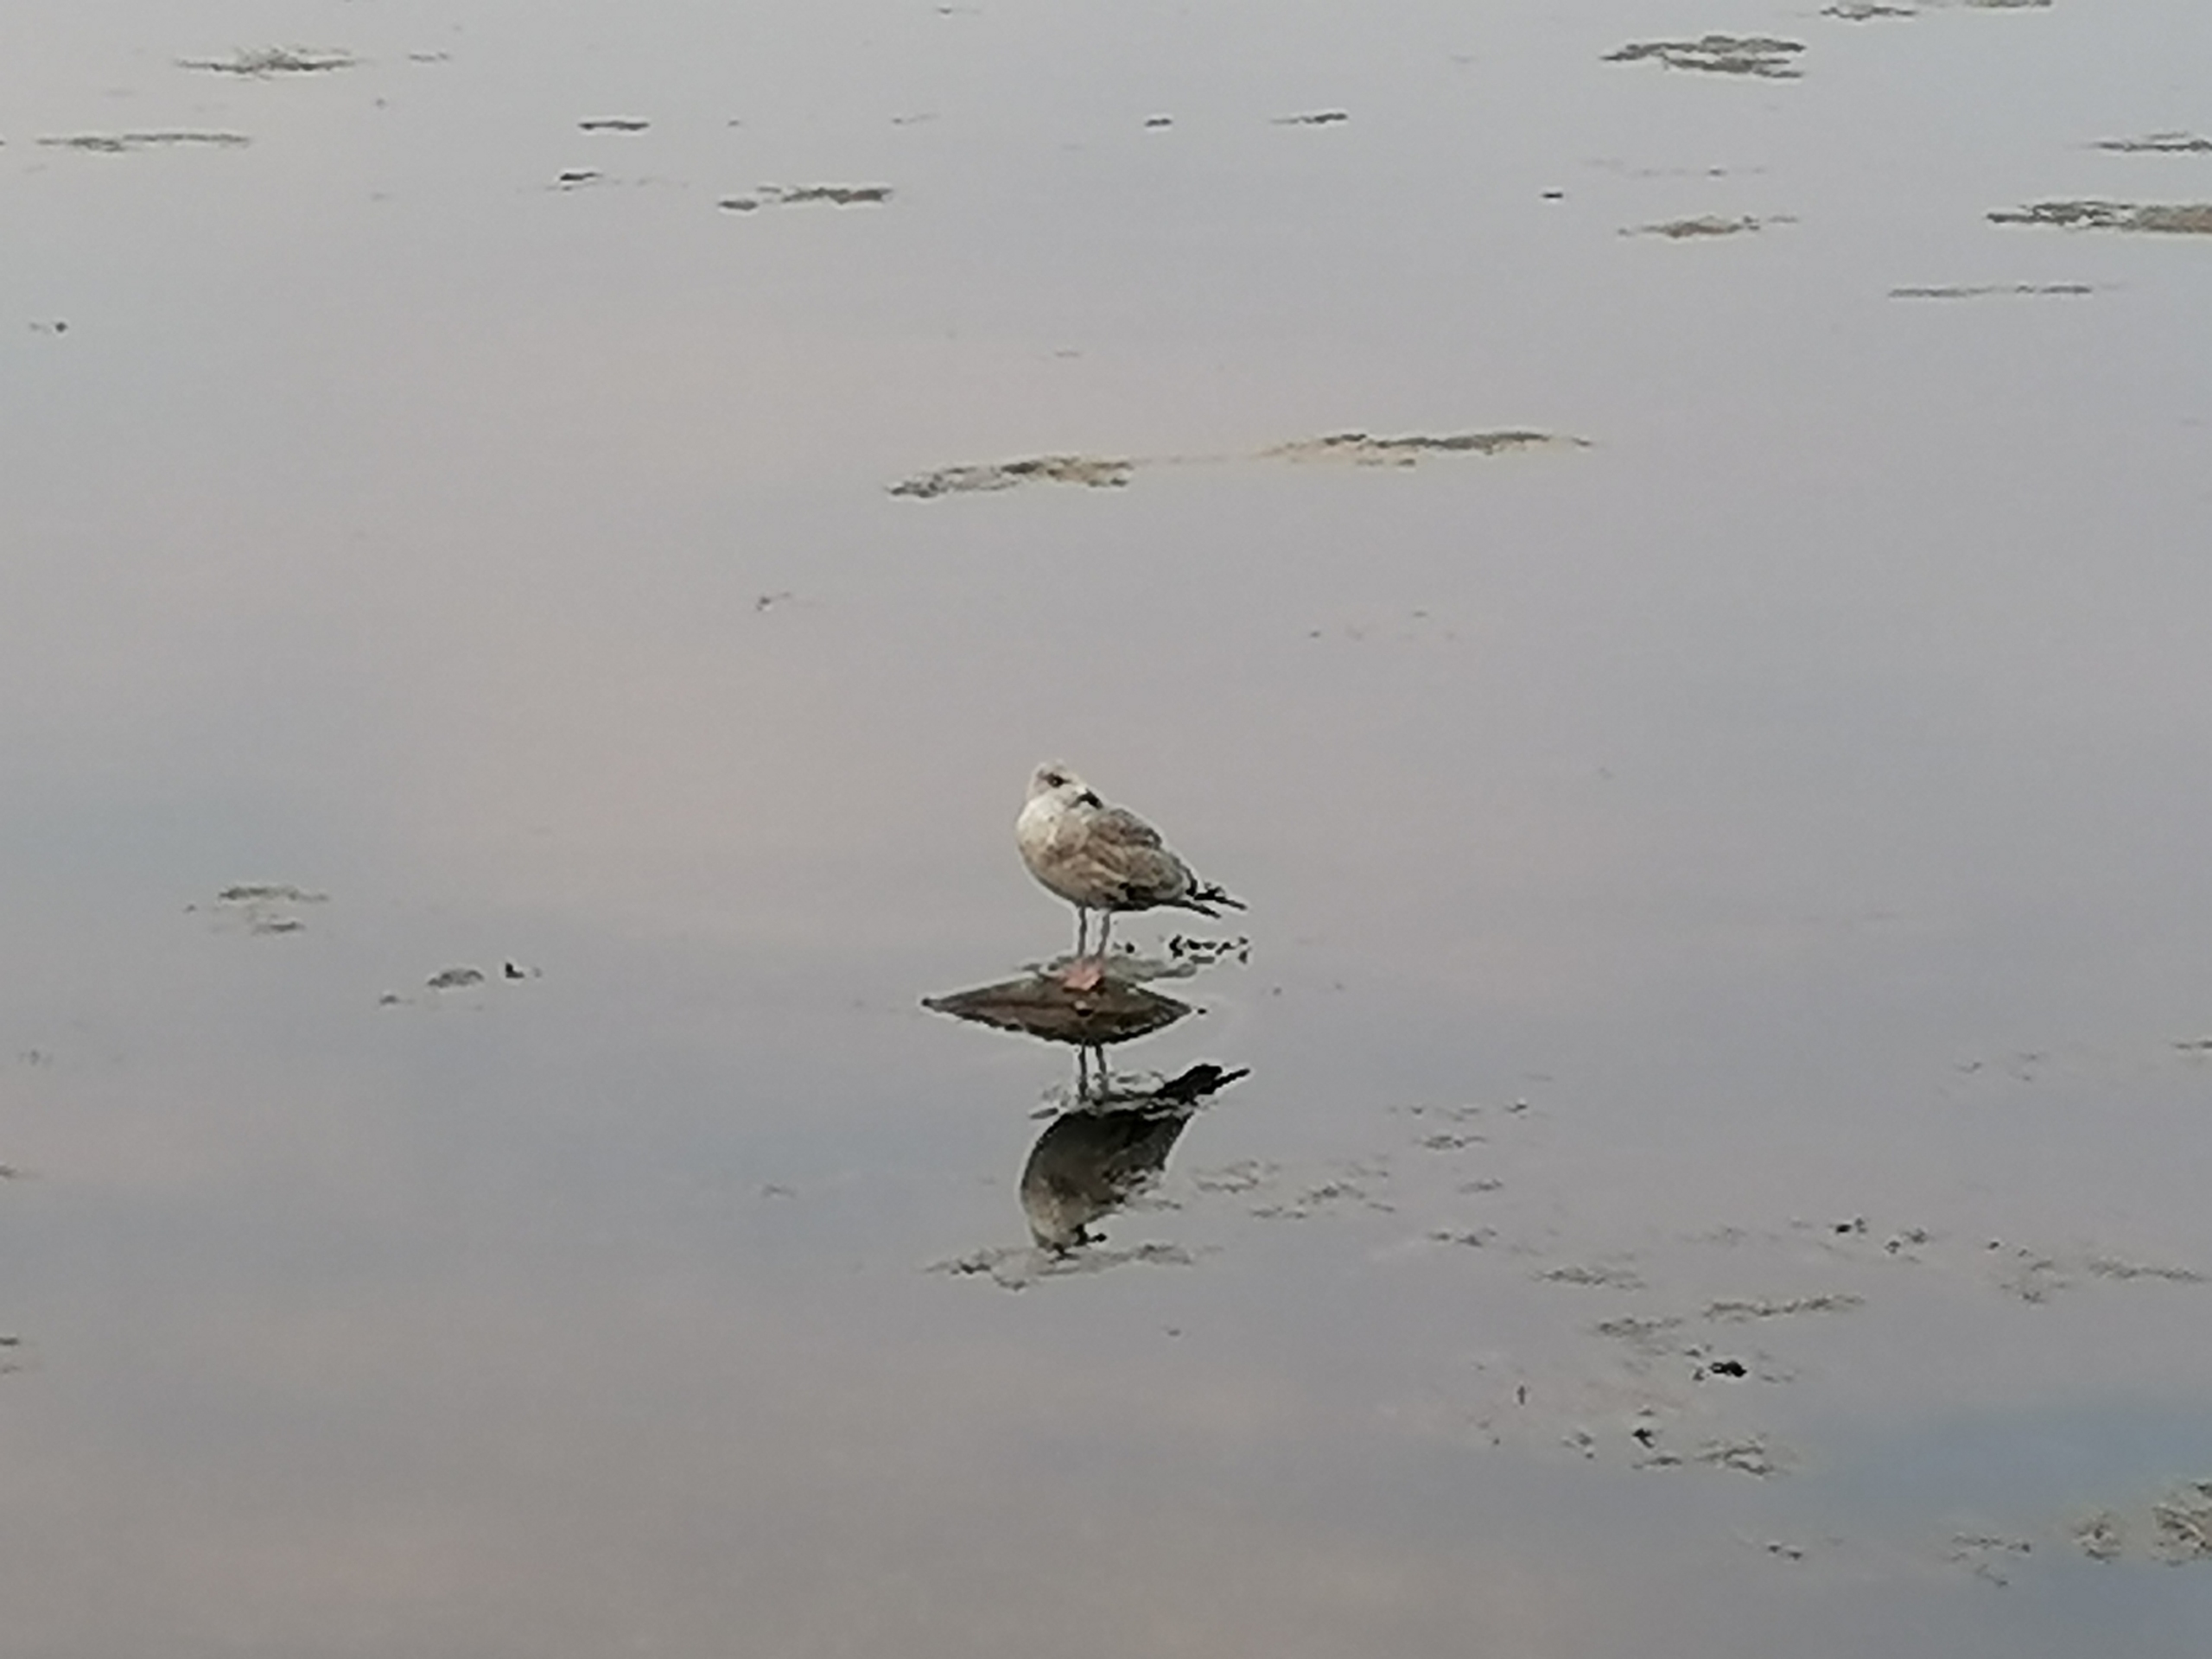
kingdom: Animalia
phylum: Chordata
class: Aves
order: Charadriiformes
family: Laridae
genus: Larus
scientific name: Larus argentatus
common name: Sølvmåge
